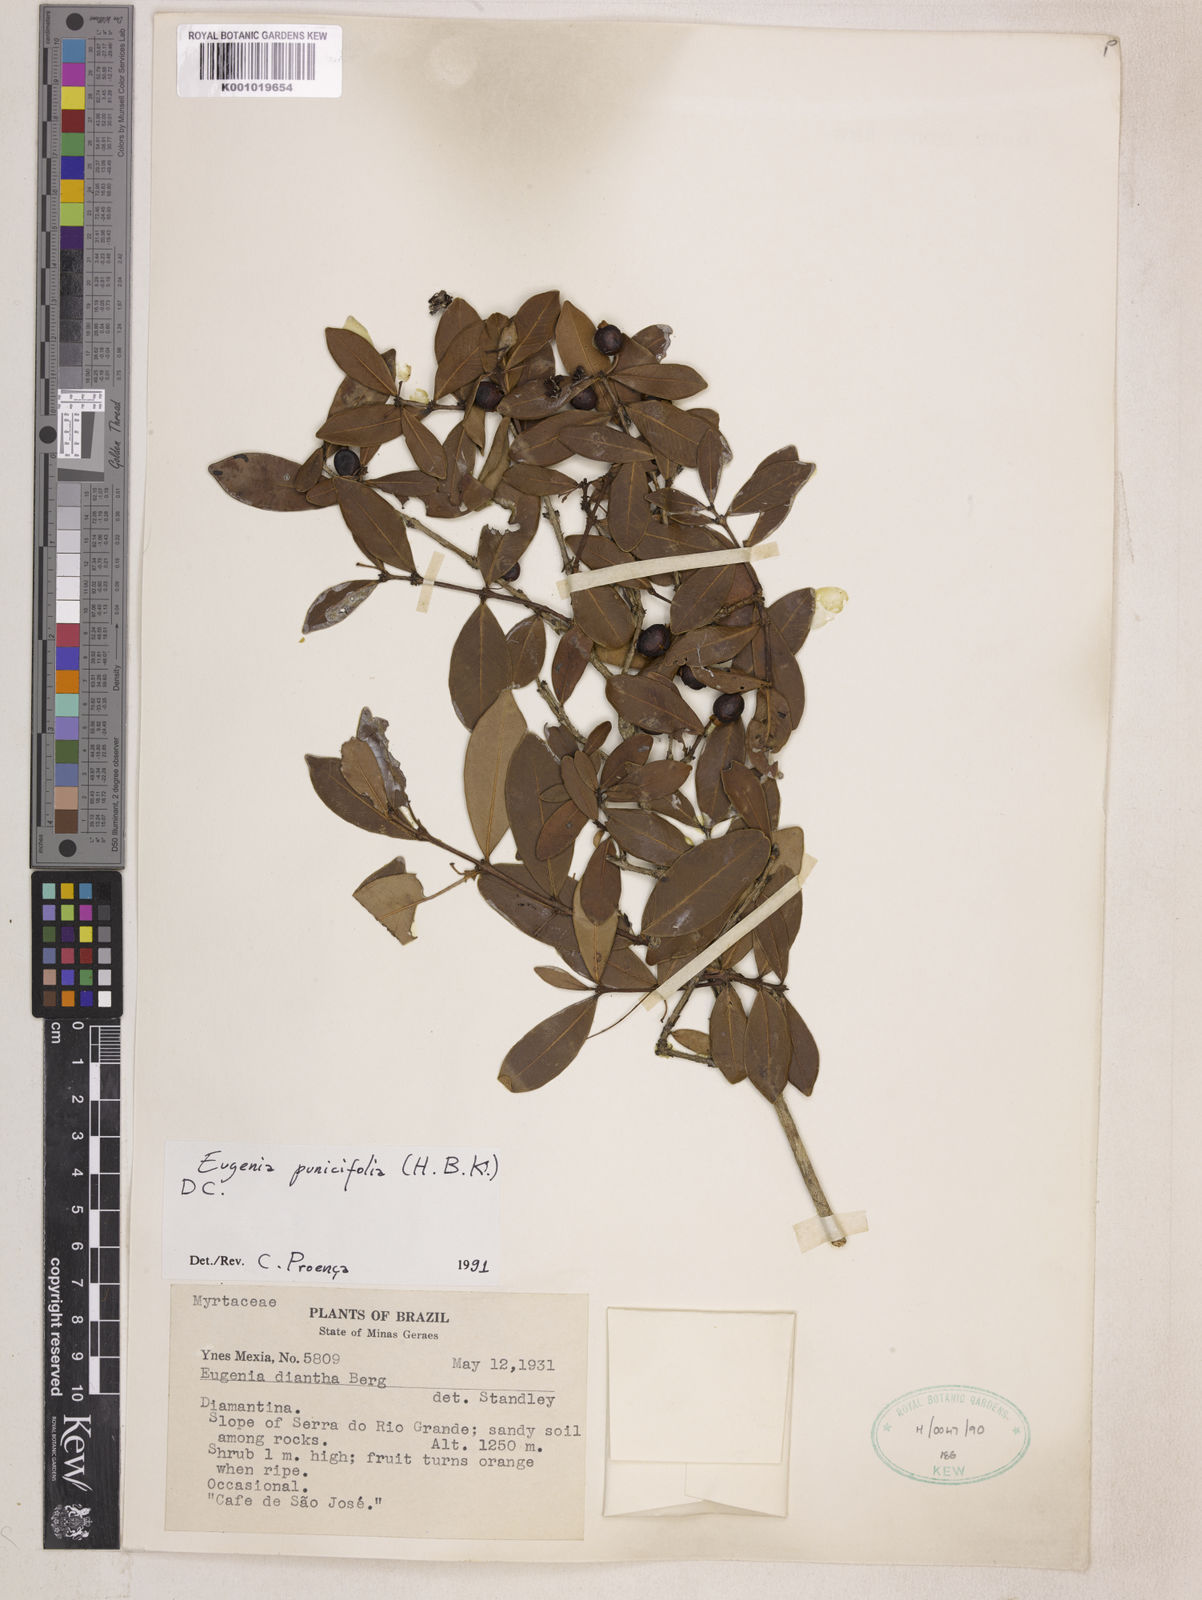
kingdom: Plantae
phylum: Tracheophyta
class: Magnoliopsida
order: Myrtales
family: Myrtaceae
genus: Eugenia
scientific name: Eugenia punicifolia
